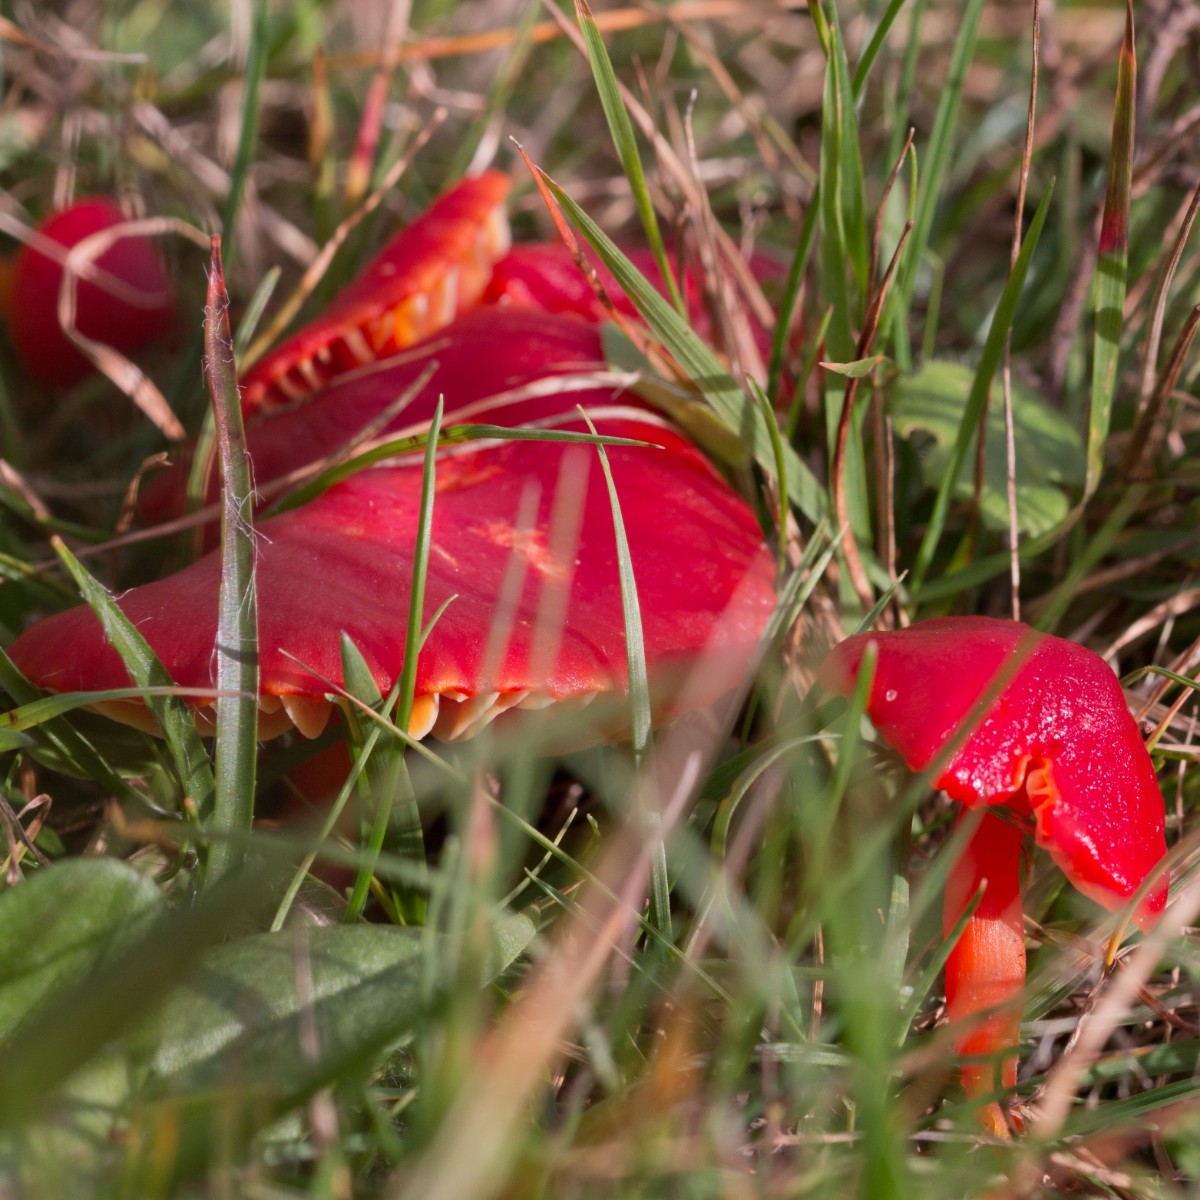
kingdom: Fungi
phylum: Basidiomycota
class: Agaricomycetes
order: Agaricales
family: Hygrophoraceae
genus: Hygrocybe
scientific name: Hygrocybe coccinea
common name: cinnober-vokshat
